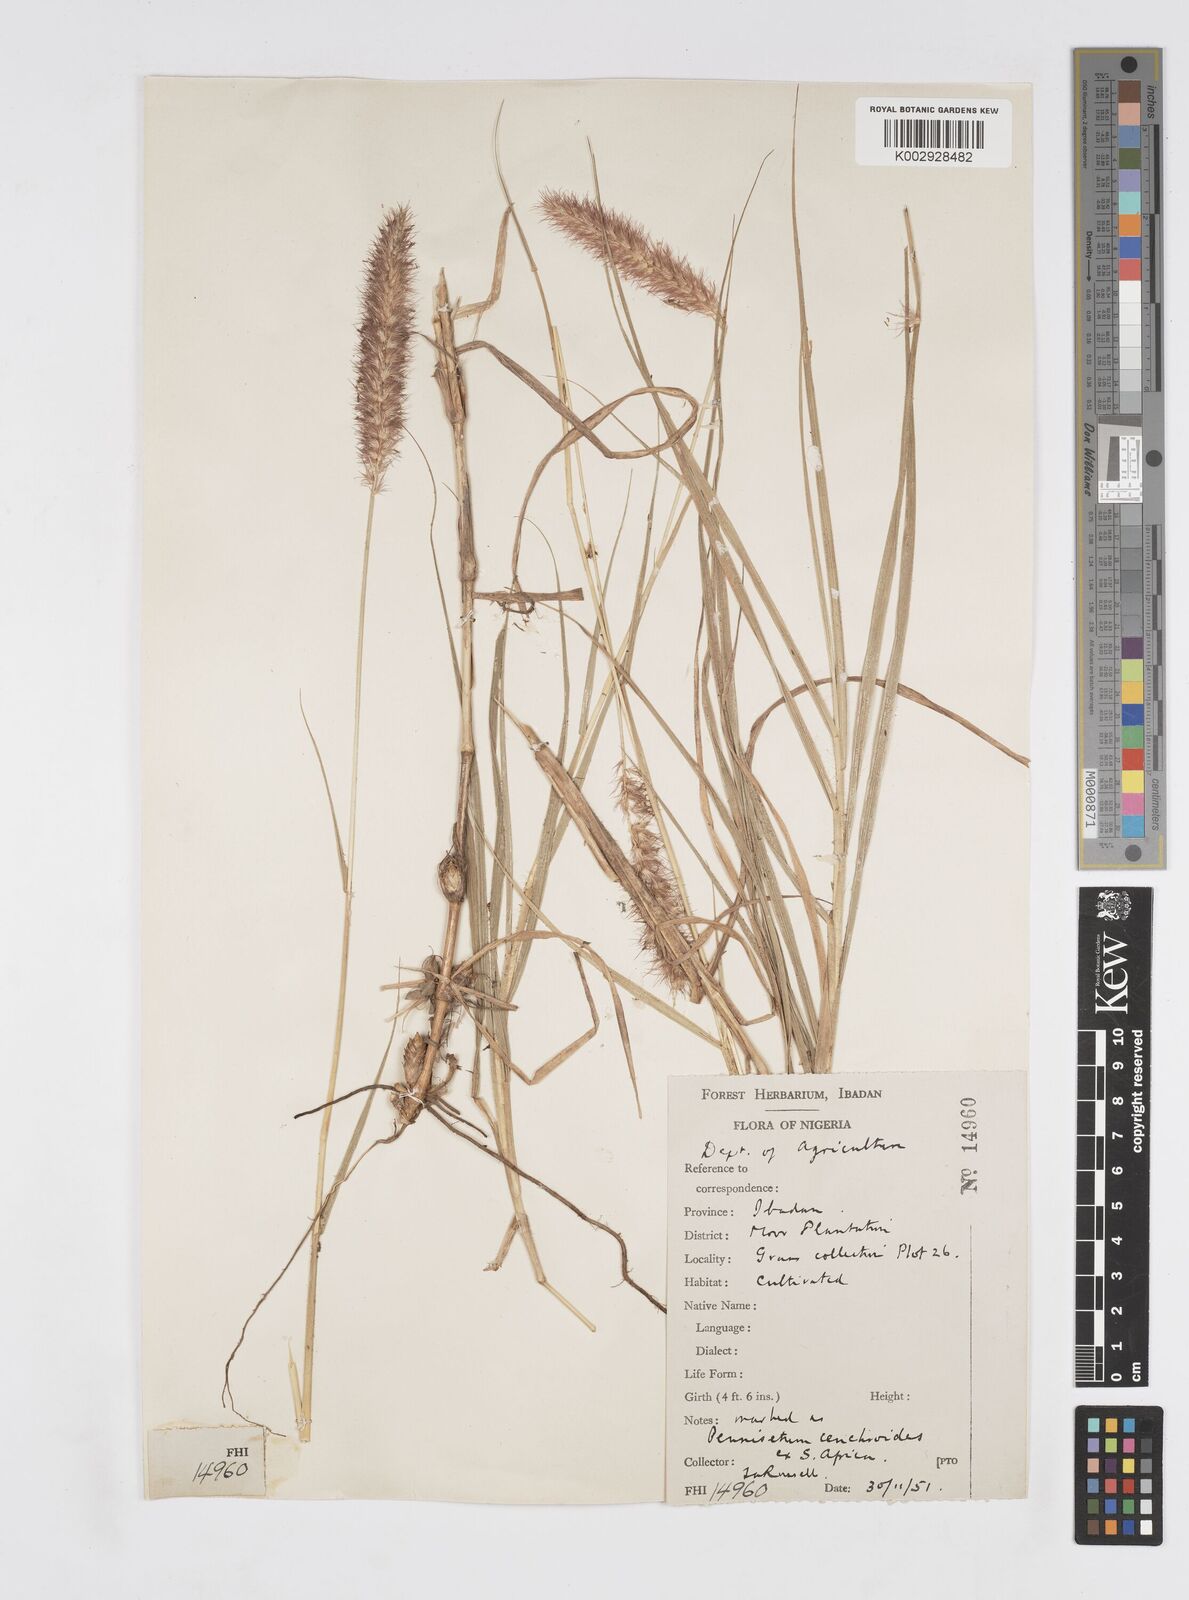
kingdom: Plantae
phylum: Tracheophyta
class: Liliopsida
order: Poales
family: Poaceae
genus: Cenchrus
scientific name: Cenchrus ciliaris
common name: Buffelgrass
